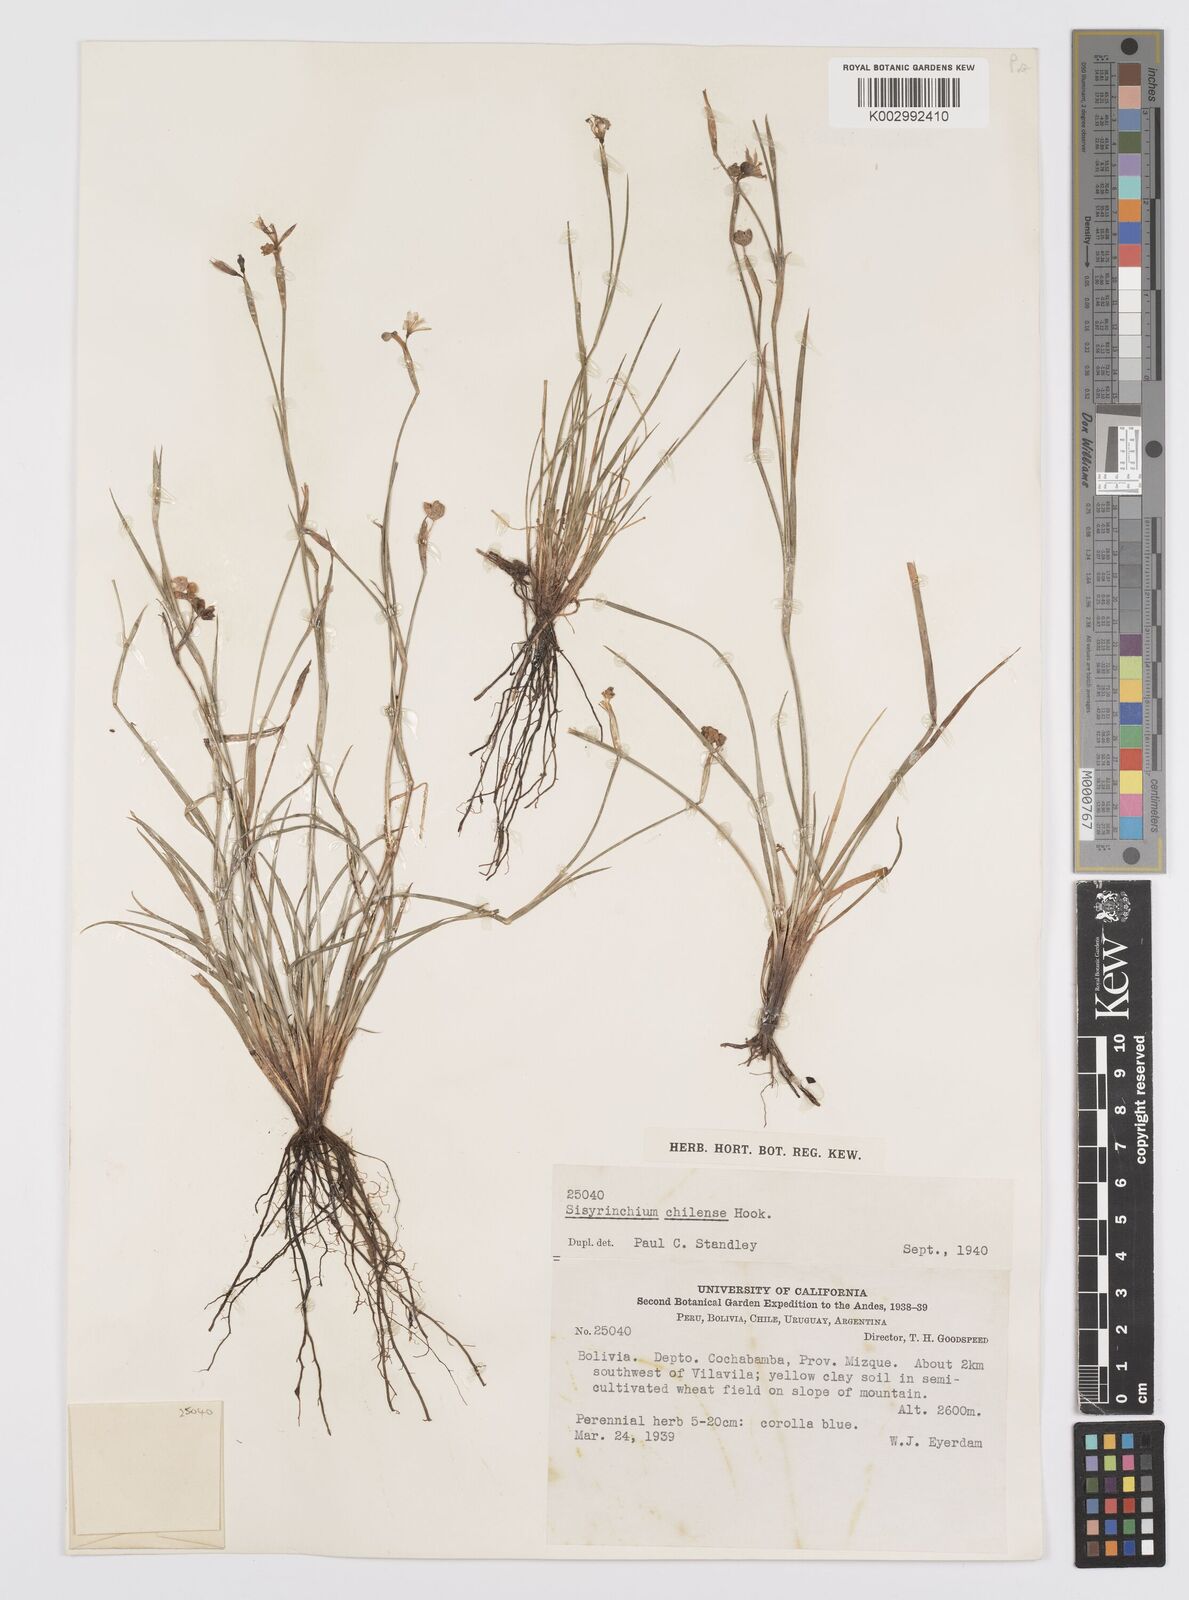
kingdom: Plantae
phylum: Tracheophyta
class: Liliopsida
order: Asparagales
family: Iridaceae
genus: Sisyrinchium
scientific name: Sisyrinchium chilense
